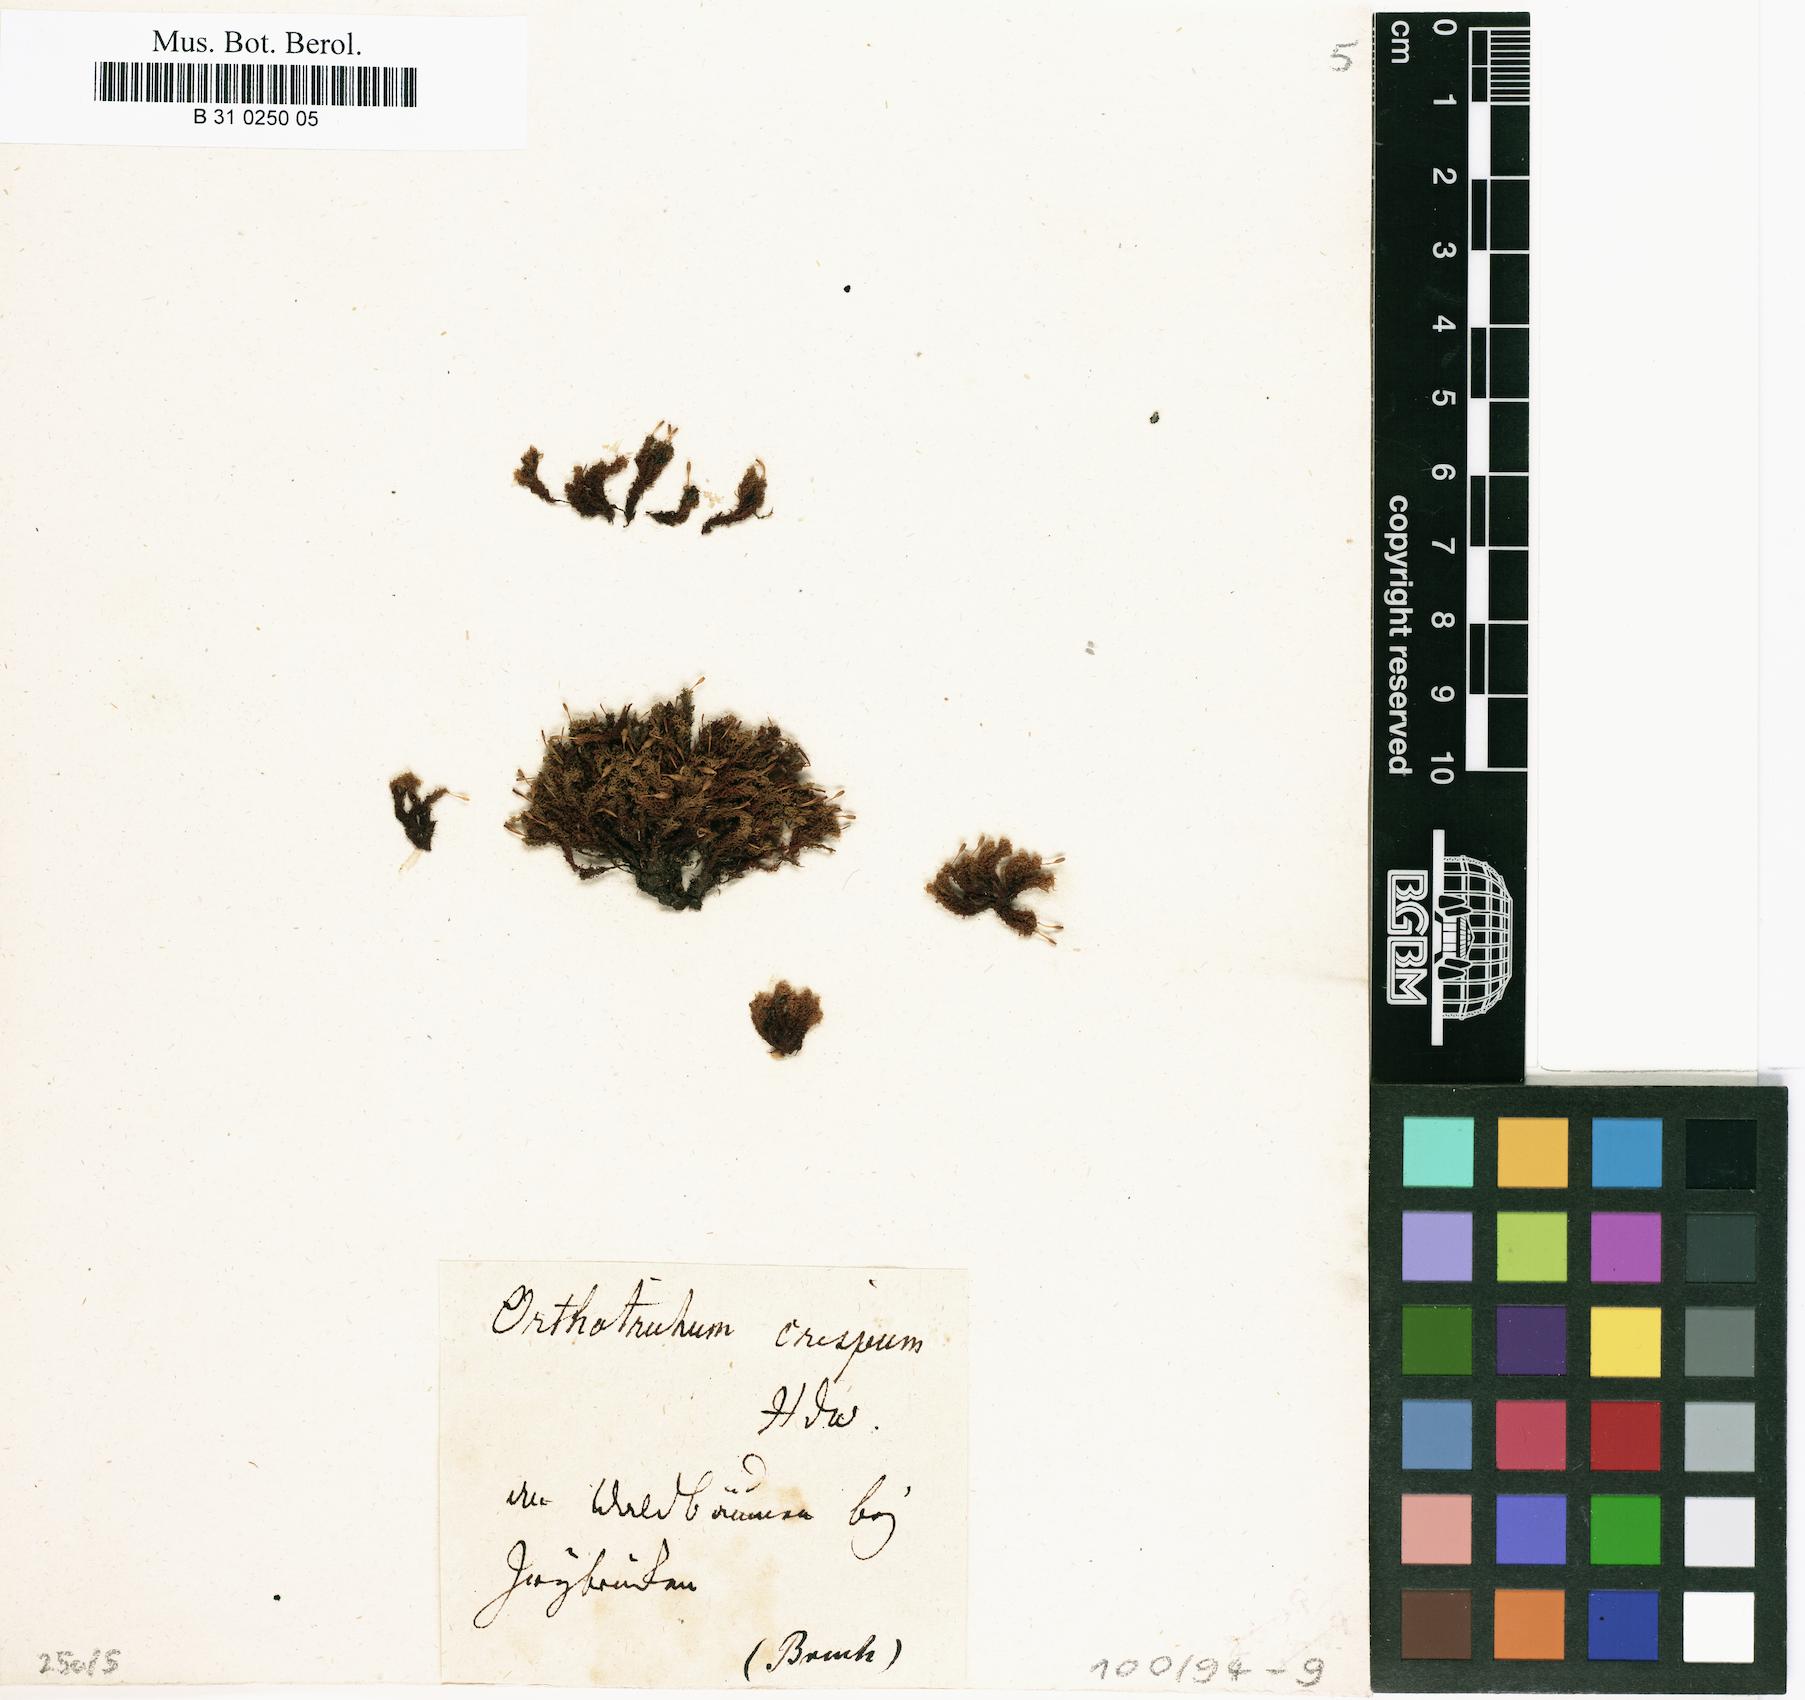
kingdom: Plantae
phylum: Bryophyta
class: Bryopsida
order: Orthotrichales
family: Orthotrichaceae
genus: Ulota
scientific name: Ulota crispa
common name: Crisped pincushion moss
